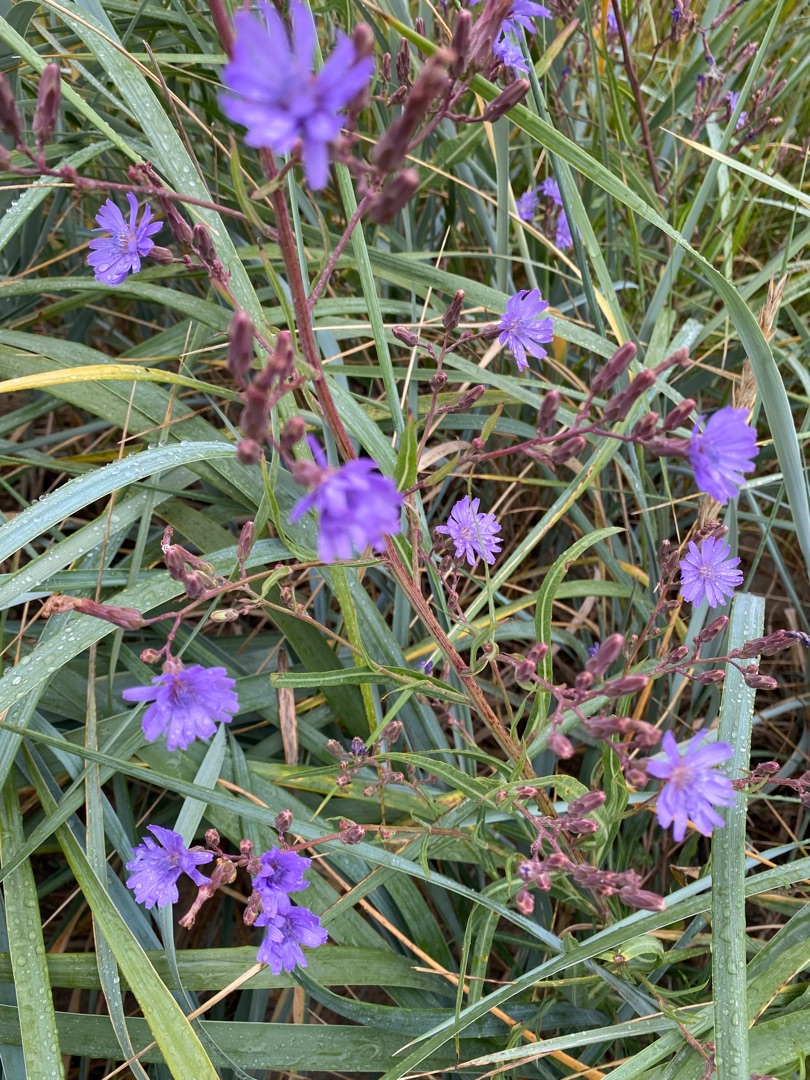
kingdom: Plantae
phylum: Tracheophyta
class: Magnoliopsida
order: Asterales
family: Asteraceae
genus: Lactuca
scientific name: Lactuca tatarica
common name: Strand-salat
